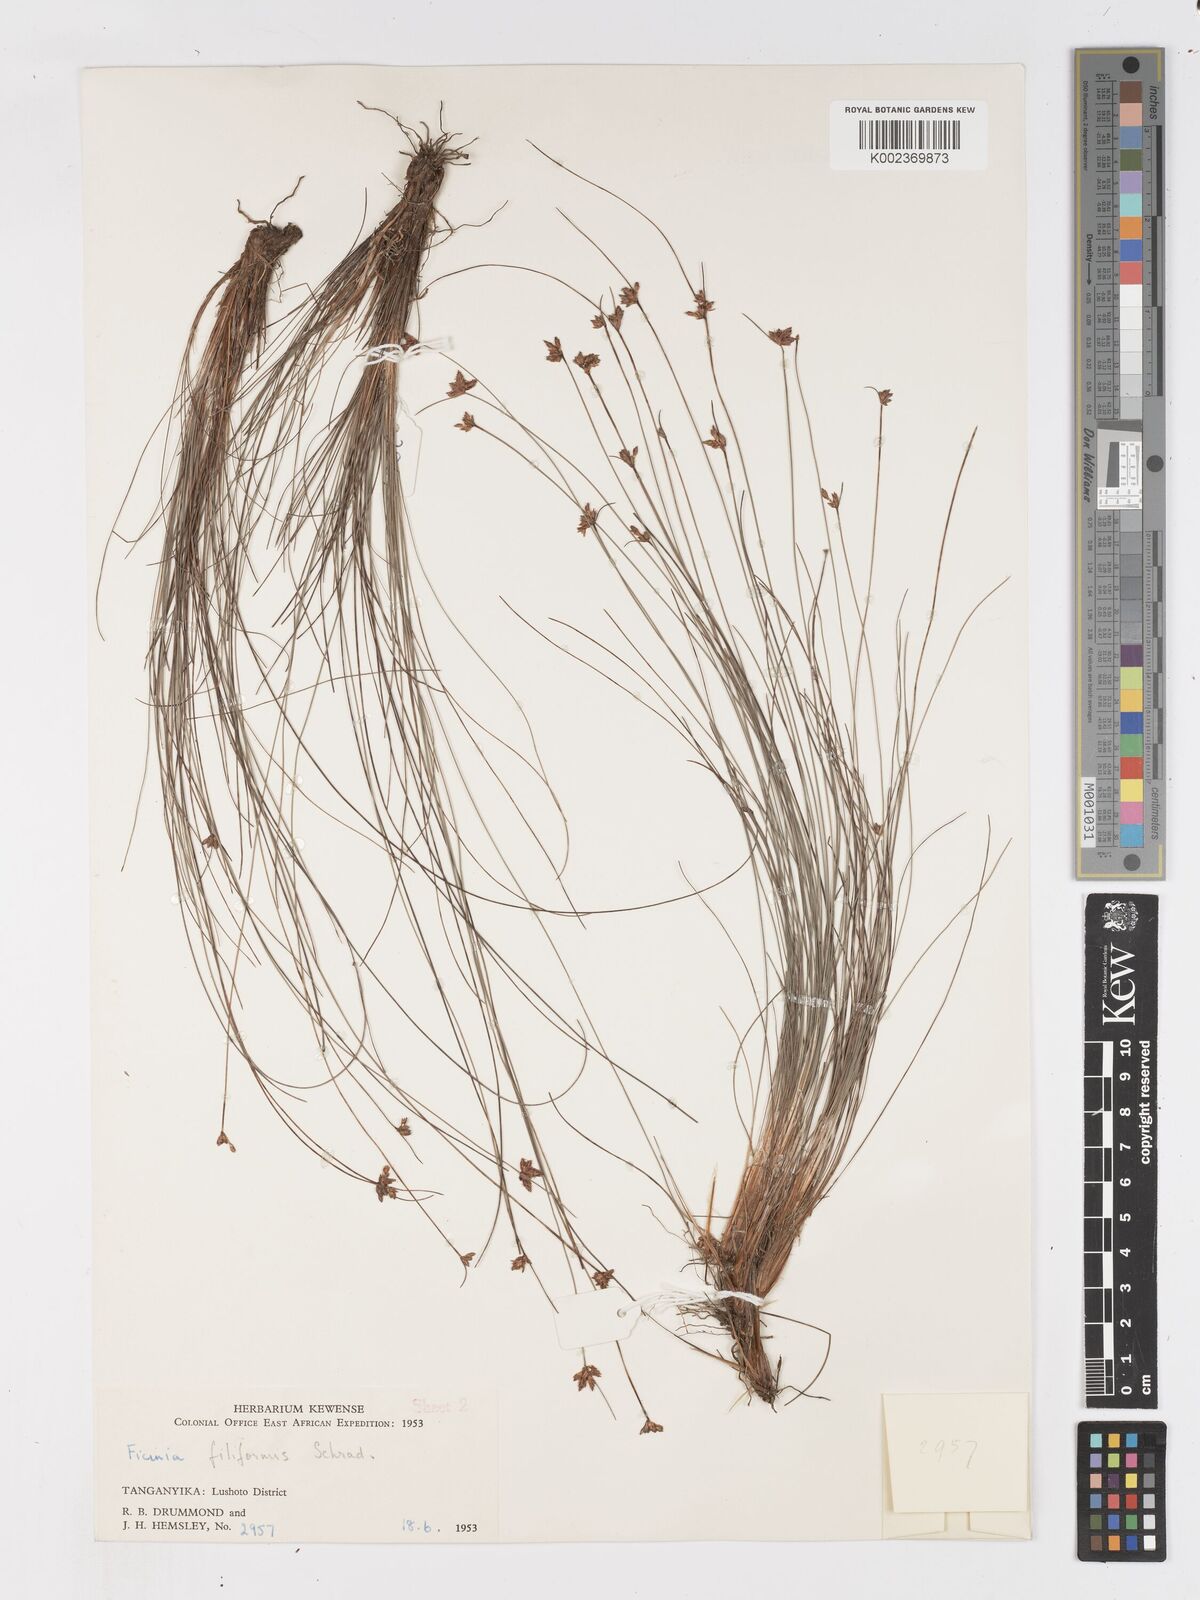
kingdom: Plantae
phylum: Tracheophyta
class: Liliopsida
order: Poales
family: Cyperaceae
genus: Ficinia
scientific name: Ficinia filiformis
